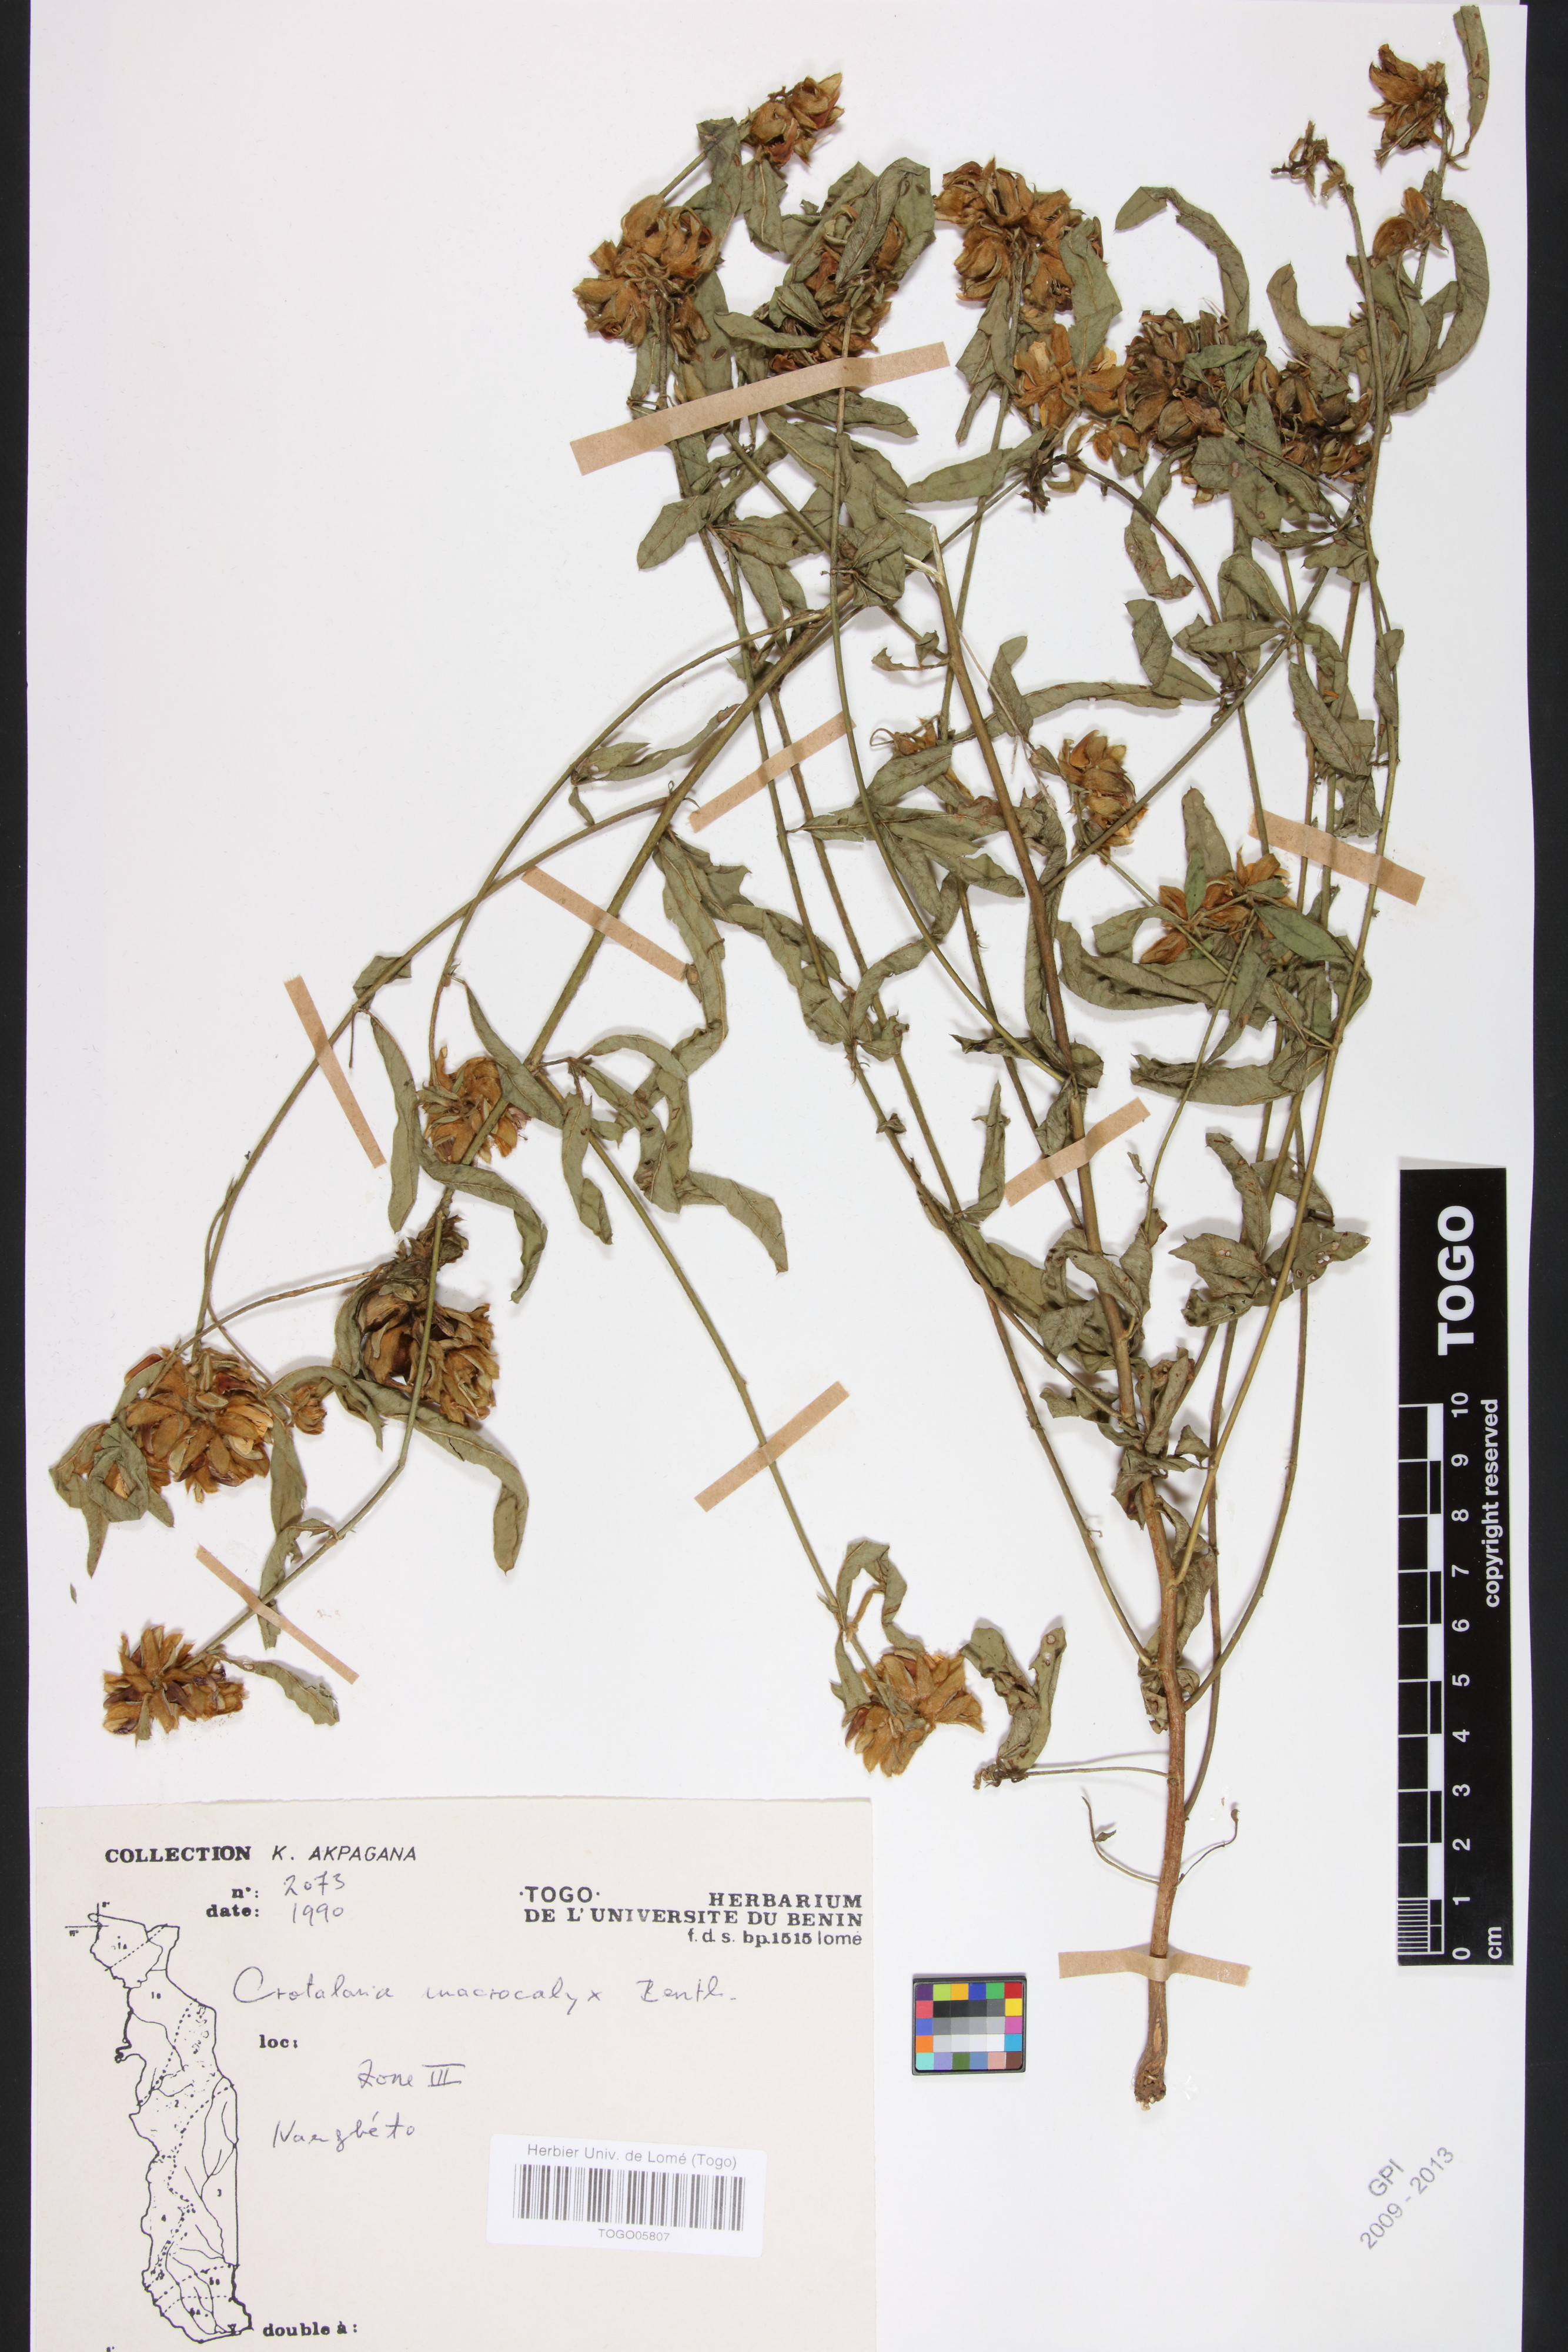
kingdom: Plantae
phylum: Tracheophyta
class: Magnoliopsida
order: Fabales
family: Fabaceae
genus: Crotalaria
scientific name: Crotalaria macrocalyx
